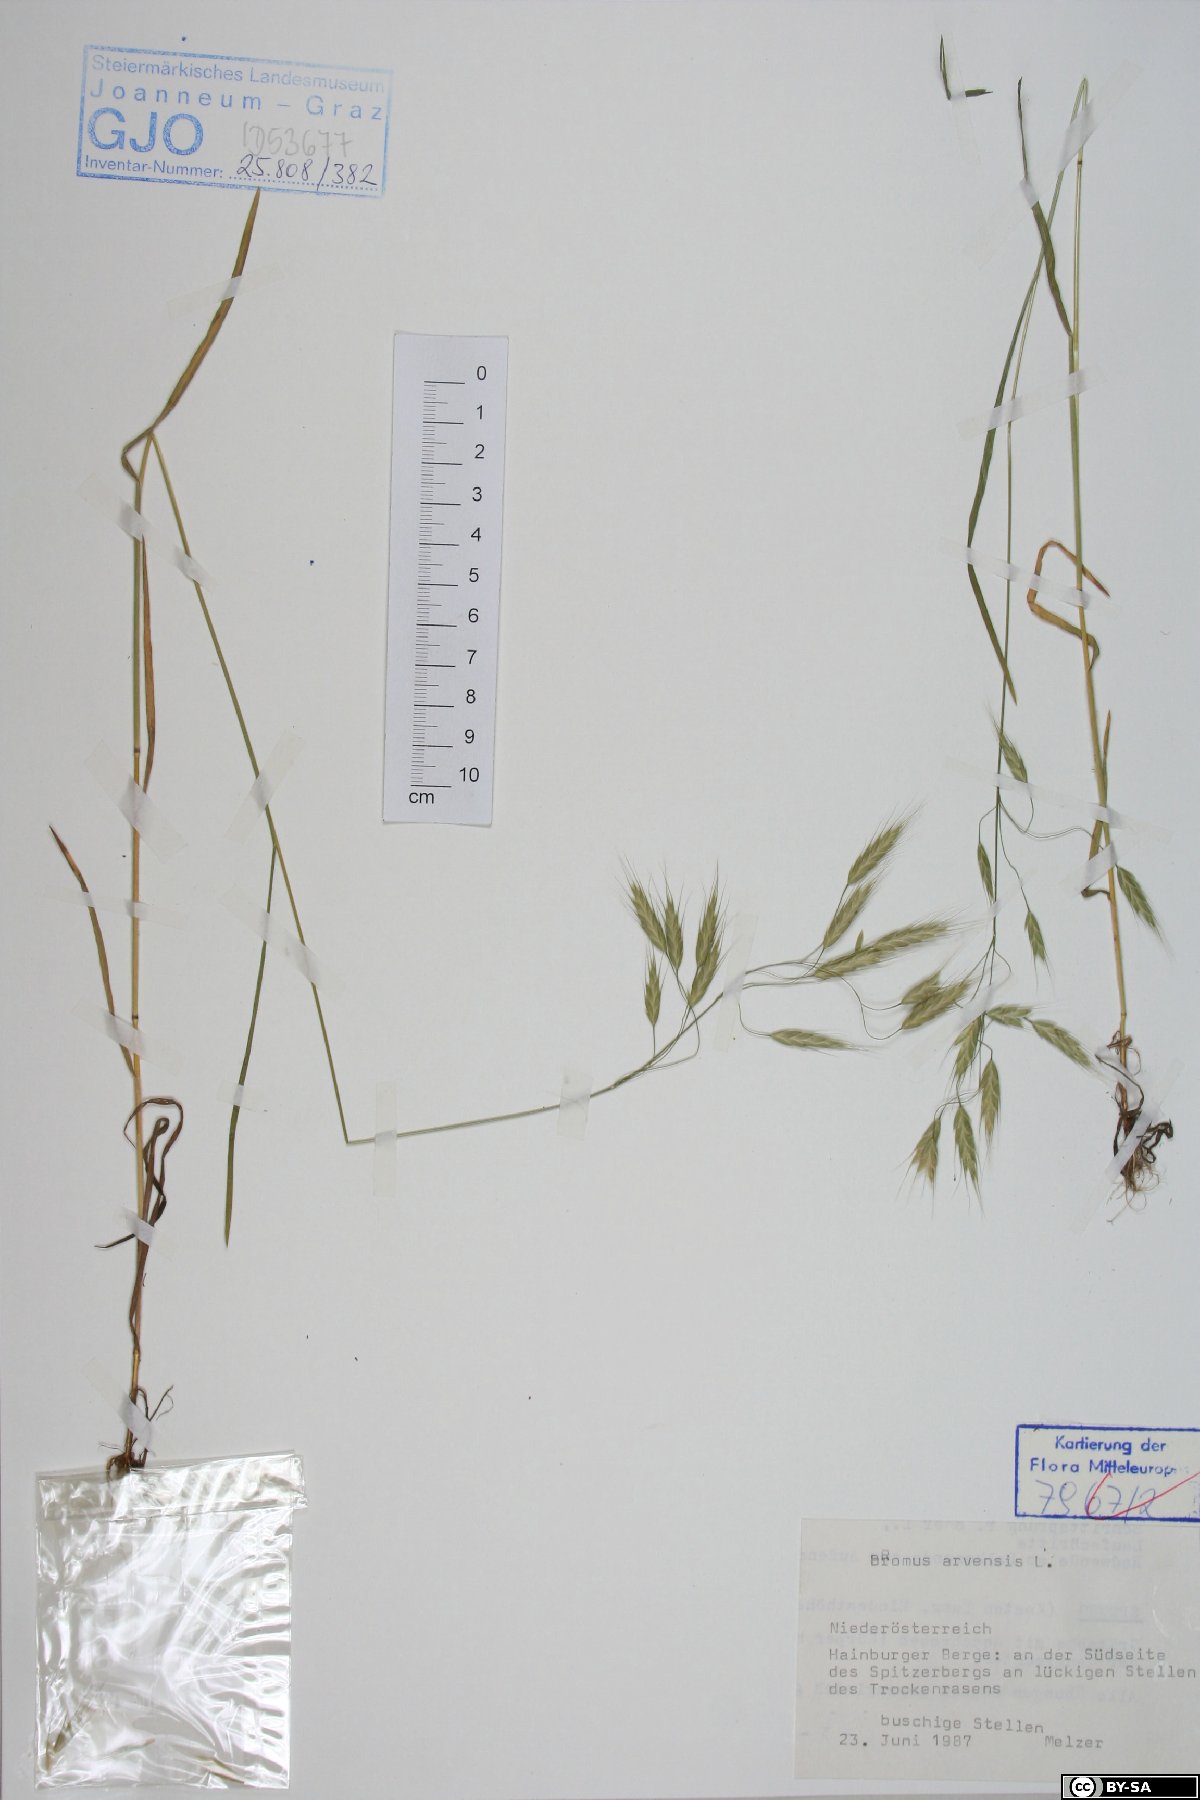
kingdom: Plantae
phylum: Tracheophyta
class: Liliopsida
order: Poales
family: Poaceae
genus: Bromus
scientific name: Bromus arvensis
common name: Field brome
